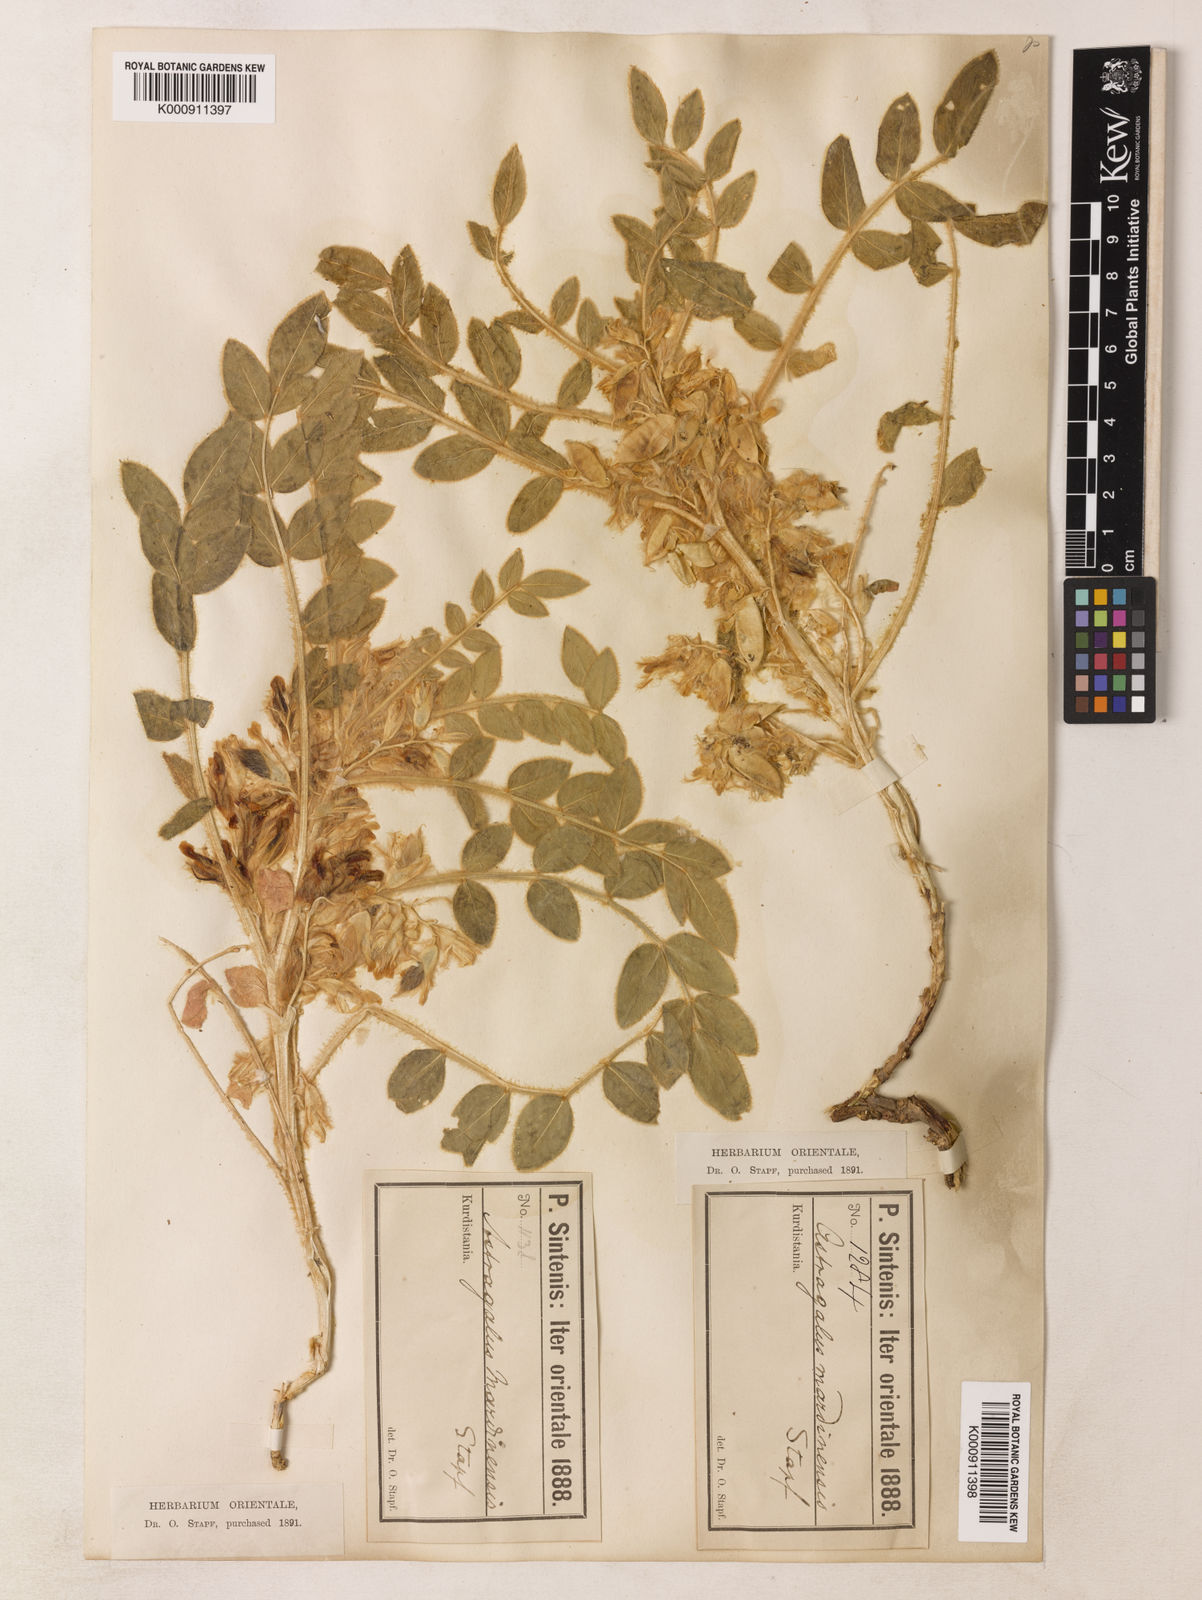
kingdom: Plantae
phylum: Tracheophyta
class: Magnoliopsida
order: Fabales
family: Fabaceae
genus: Astragalus
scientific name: Astragalus
